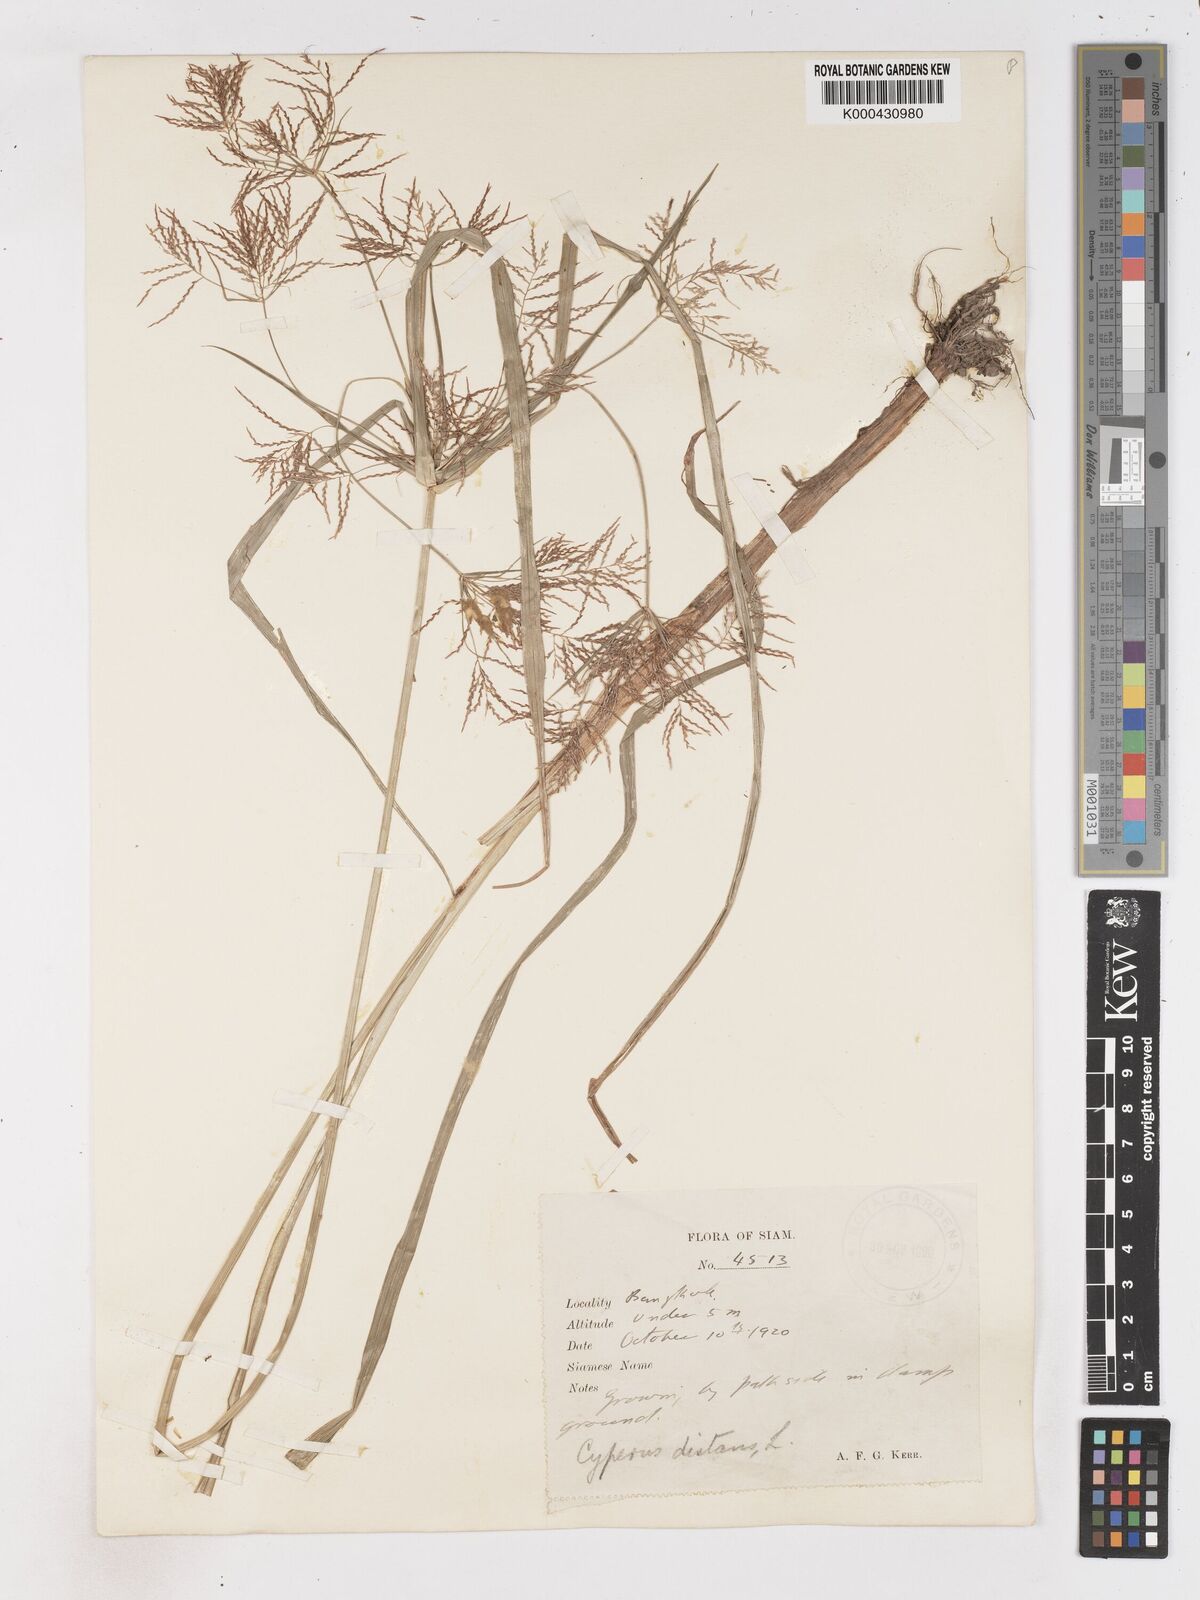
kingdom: Plantae
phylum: Tracheophyta
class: Liliopsida
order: Poales
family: Cyperaceae
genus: Cyperus
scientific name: Cyperus distans
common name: Slender cyperus
